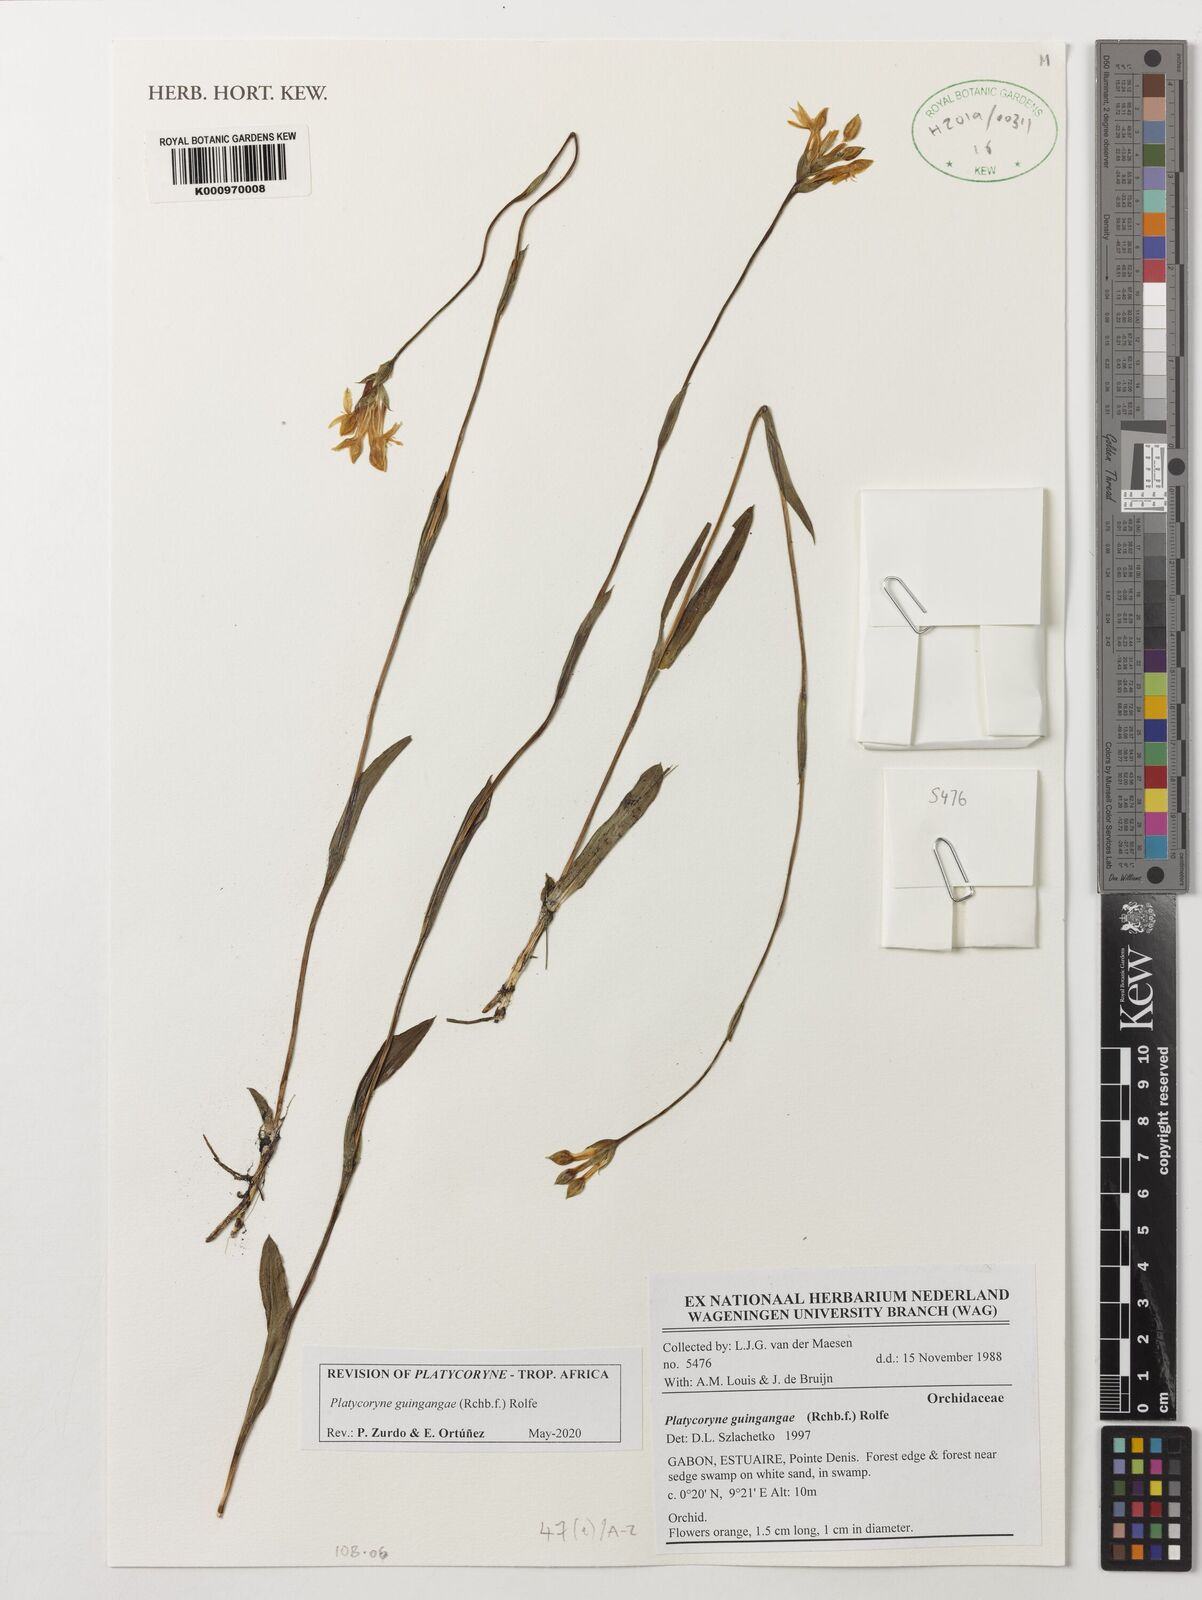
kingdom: Plantae
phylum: Tracheophyta
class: Liliopsida
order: Asparagales
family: Orchidaceae
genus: Platycoryne
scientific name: Platycoryne guingangae
